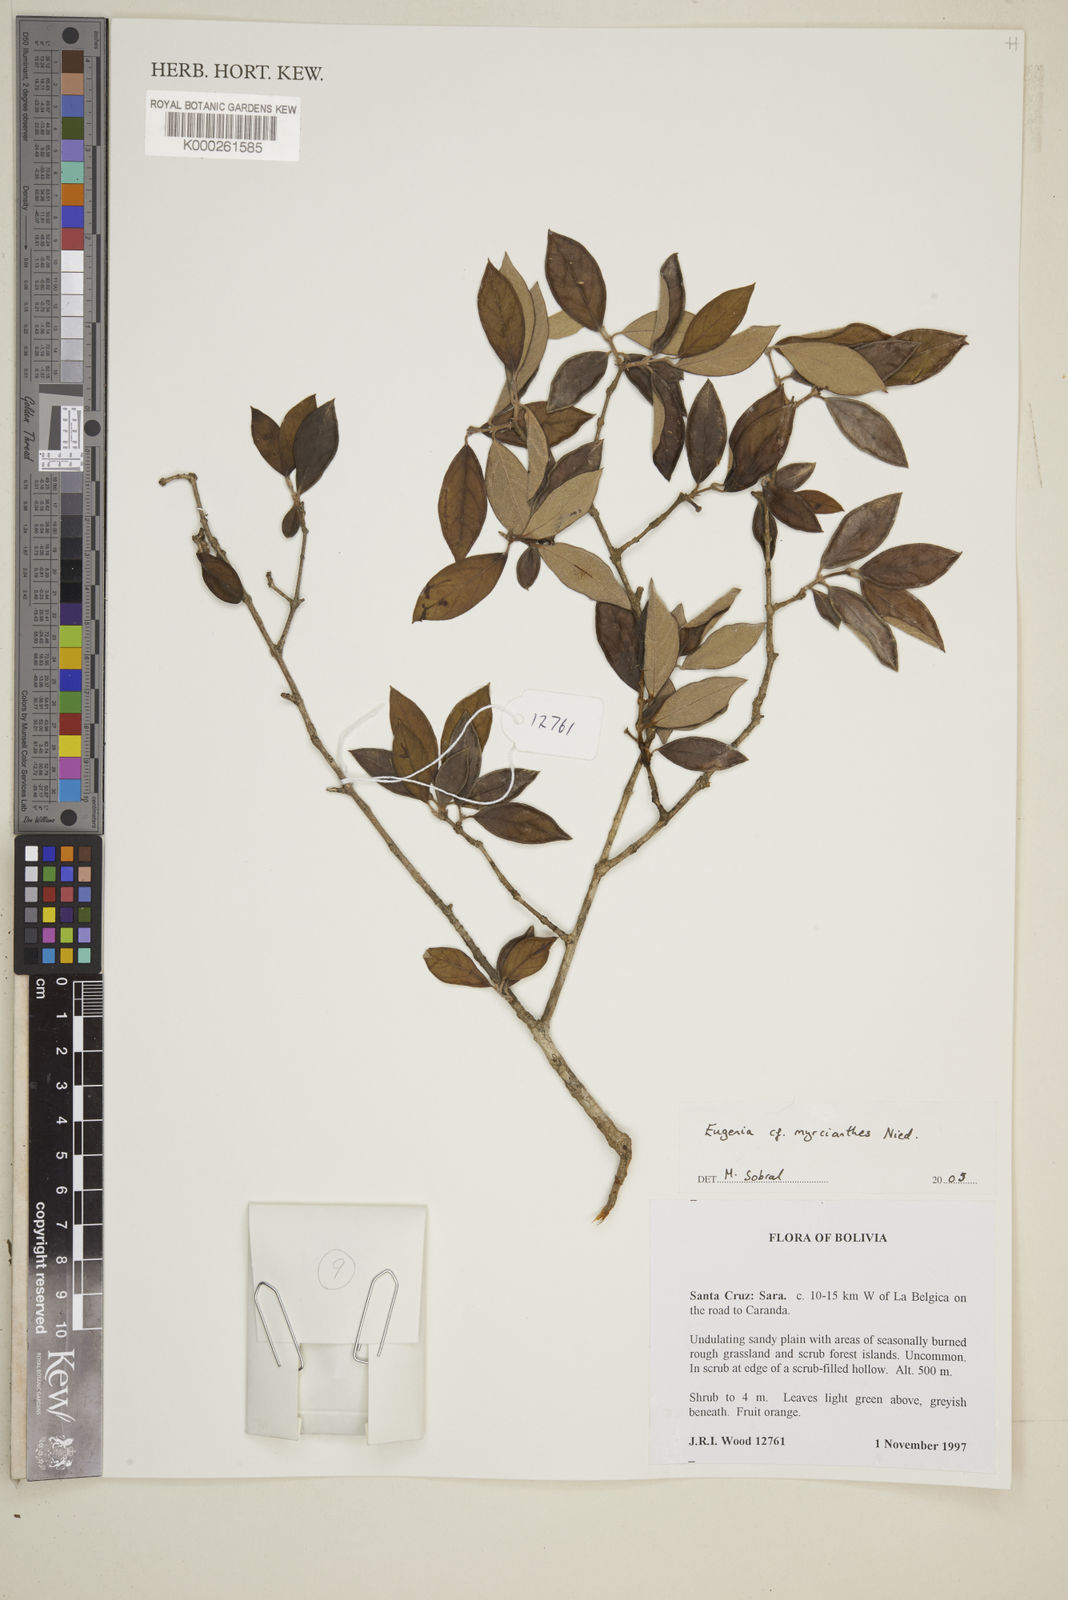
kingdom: Plantae
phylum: Tracheophyta
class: Magnoliopsida
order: Myrtales
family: Myrtaceae
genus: Eugenia
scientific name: Eugenia
